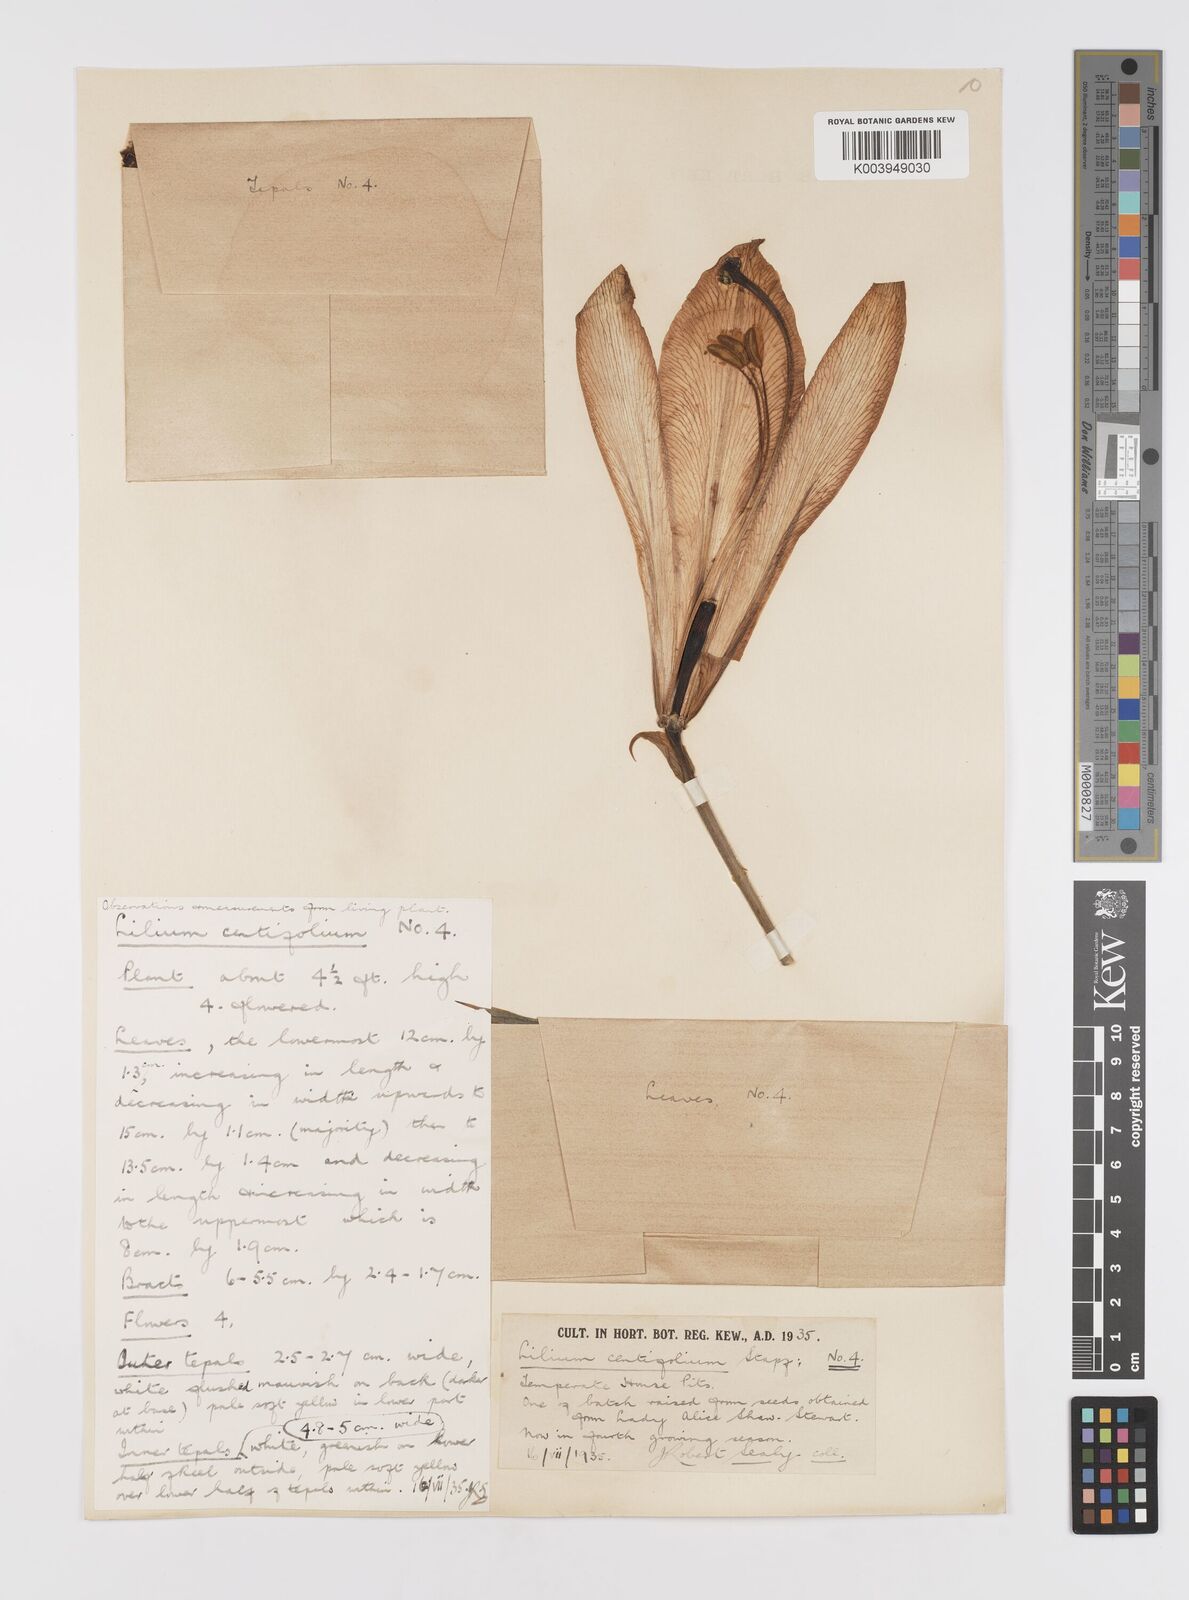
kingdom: Plantae
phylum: Tracheophyta
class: Liliopsida
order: Liliales
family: Liliaceae
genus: Lilium
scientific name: Lilium sargentiae
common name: Sargent lily
